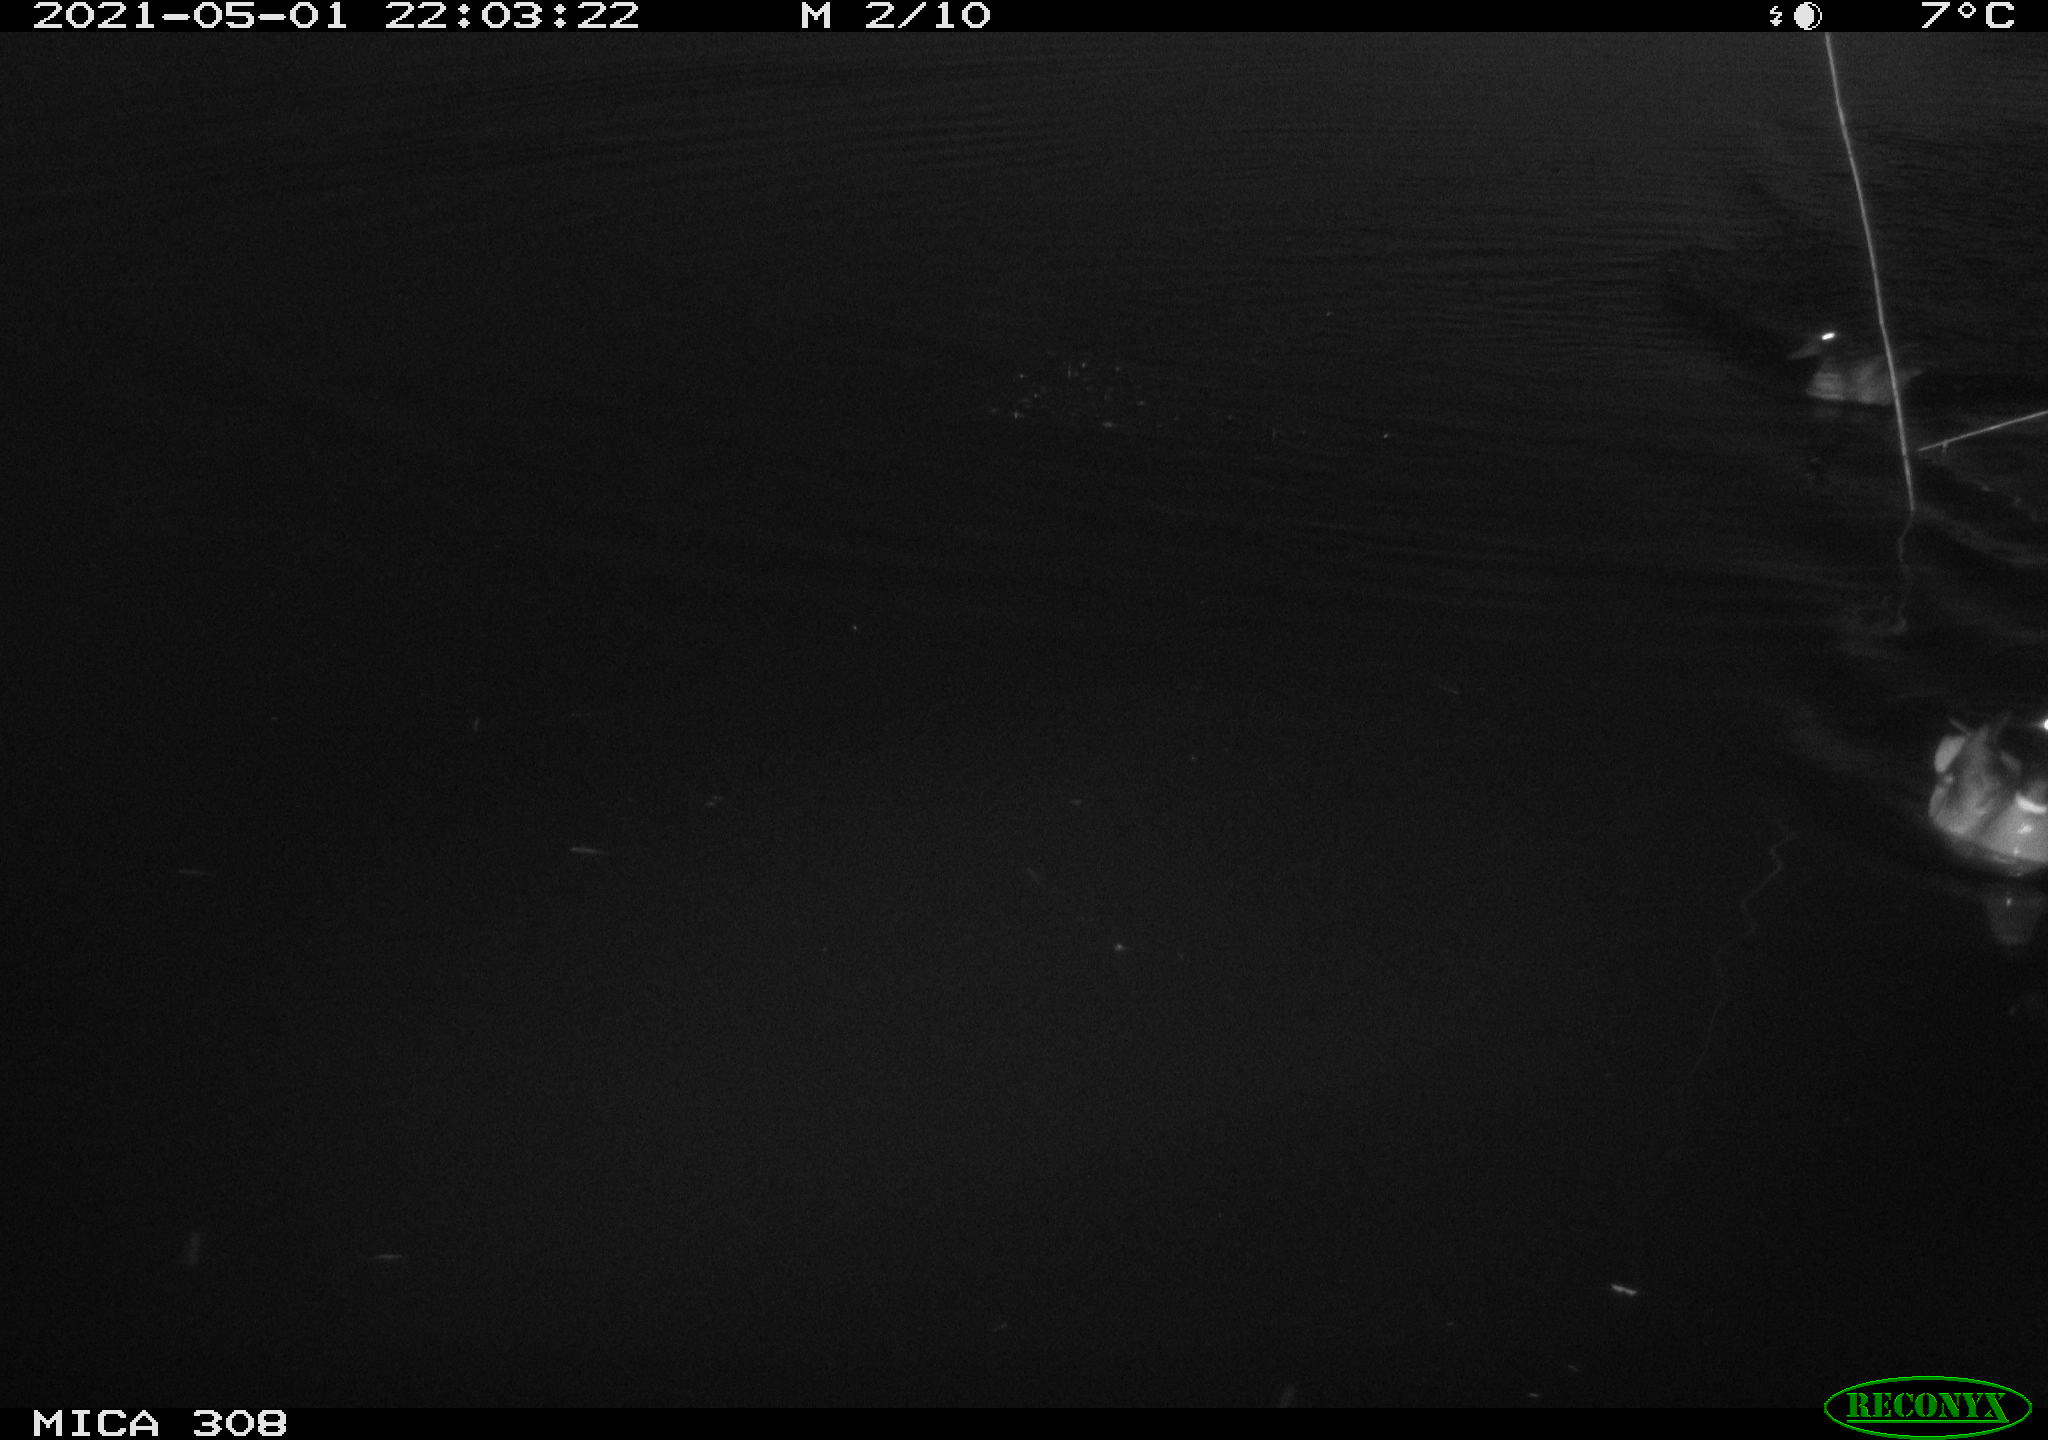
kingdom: Animalia
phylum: Chordata
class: Aves
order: Anseriformes
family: Anatidae
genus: Anas
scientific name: Anas platyrhynchos
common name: Mallard
